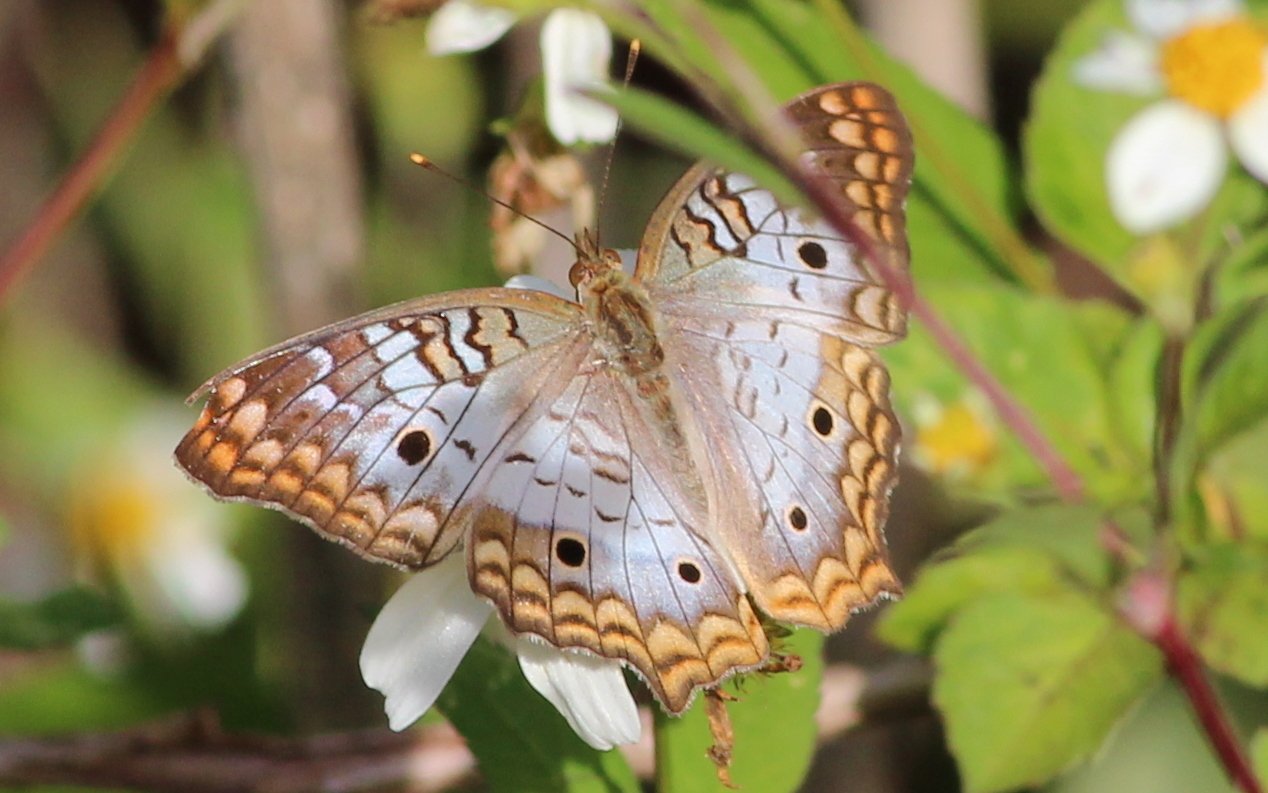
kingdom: Animalia
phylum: Arthropoda
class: Insecta
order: Lepidoptera
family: Nymphalidae
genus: Anartia
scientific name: Anartia jatrophae
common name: White Peacock
